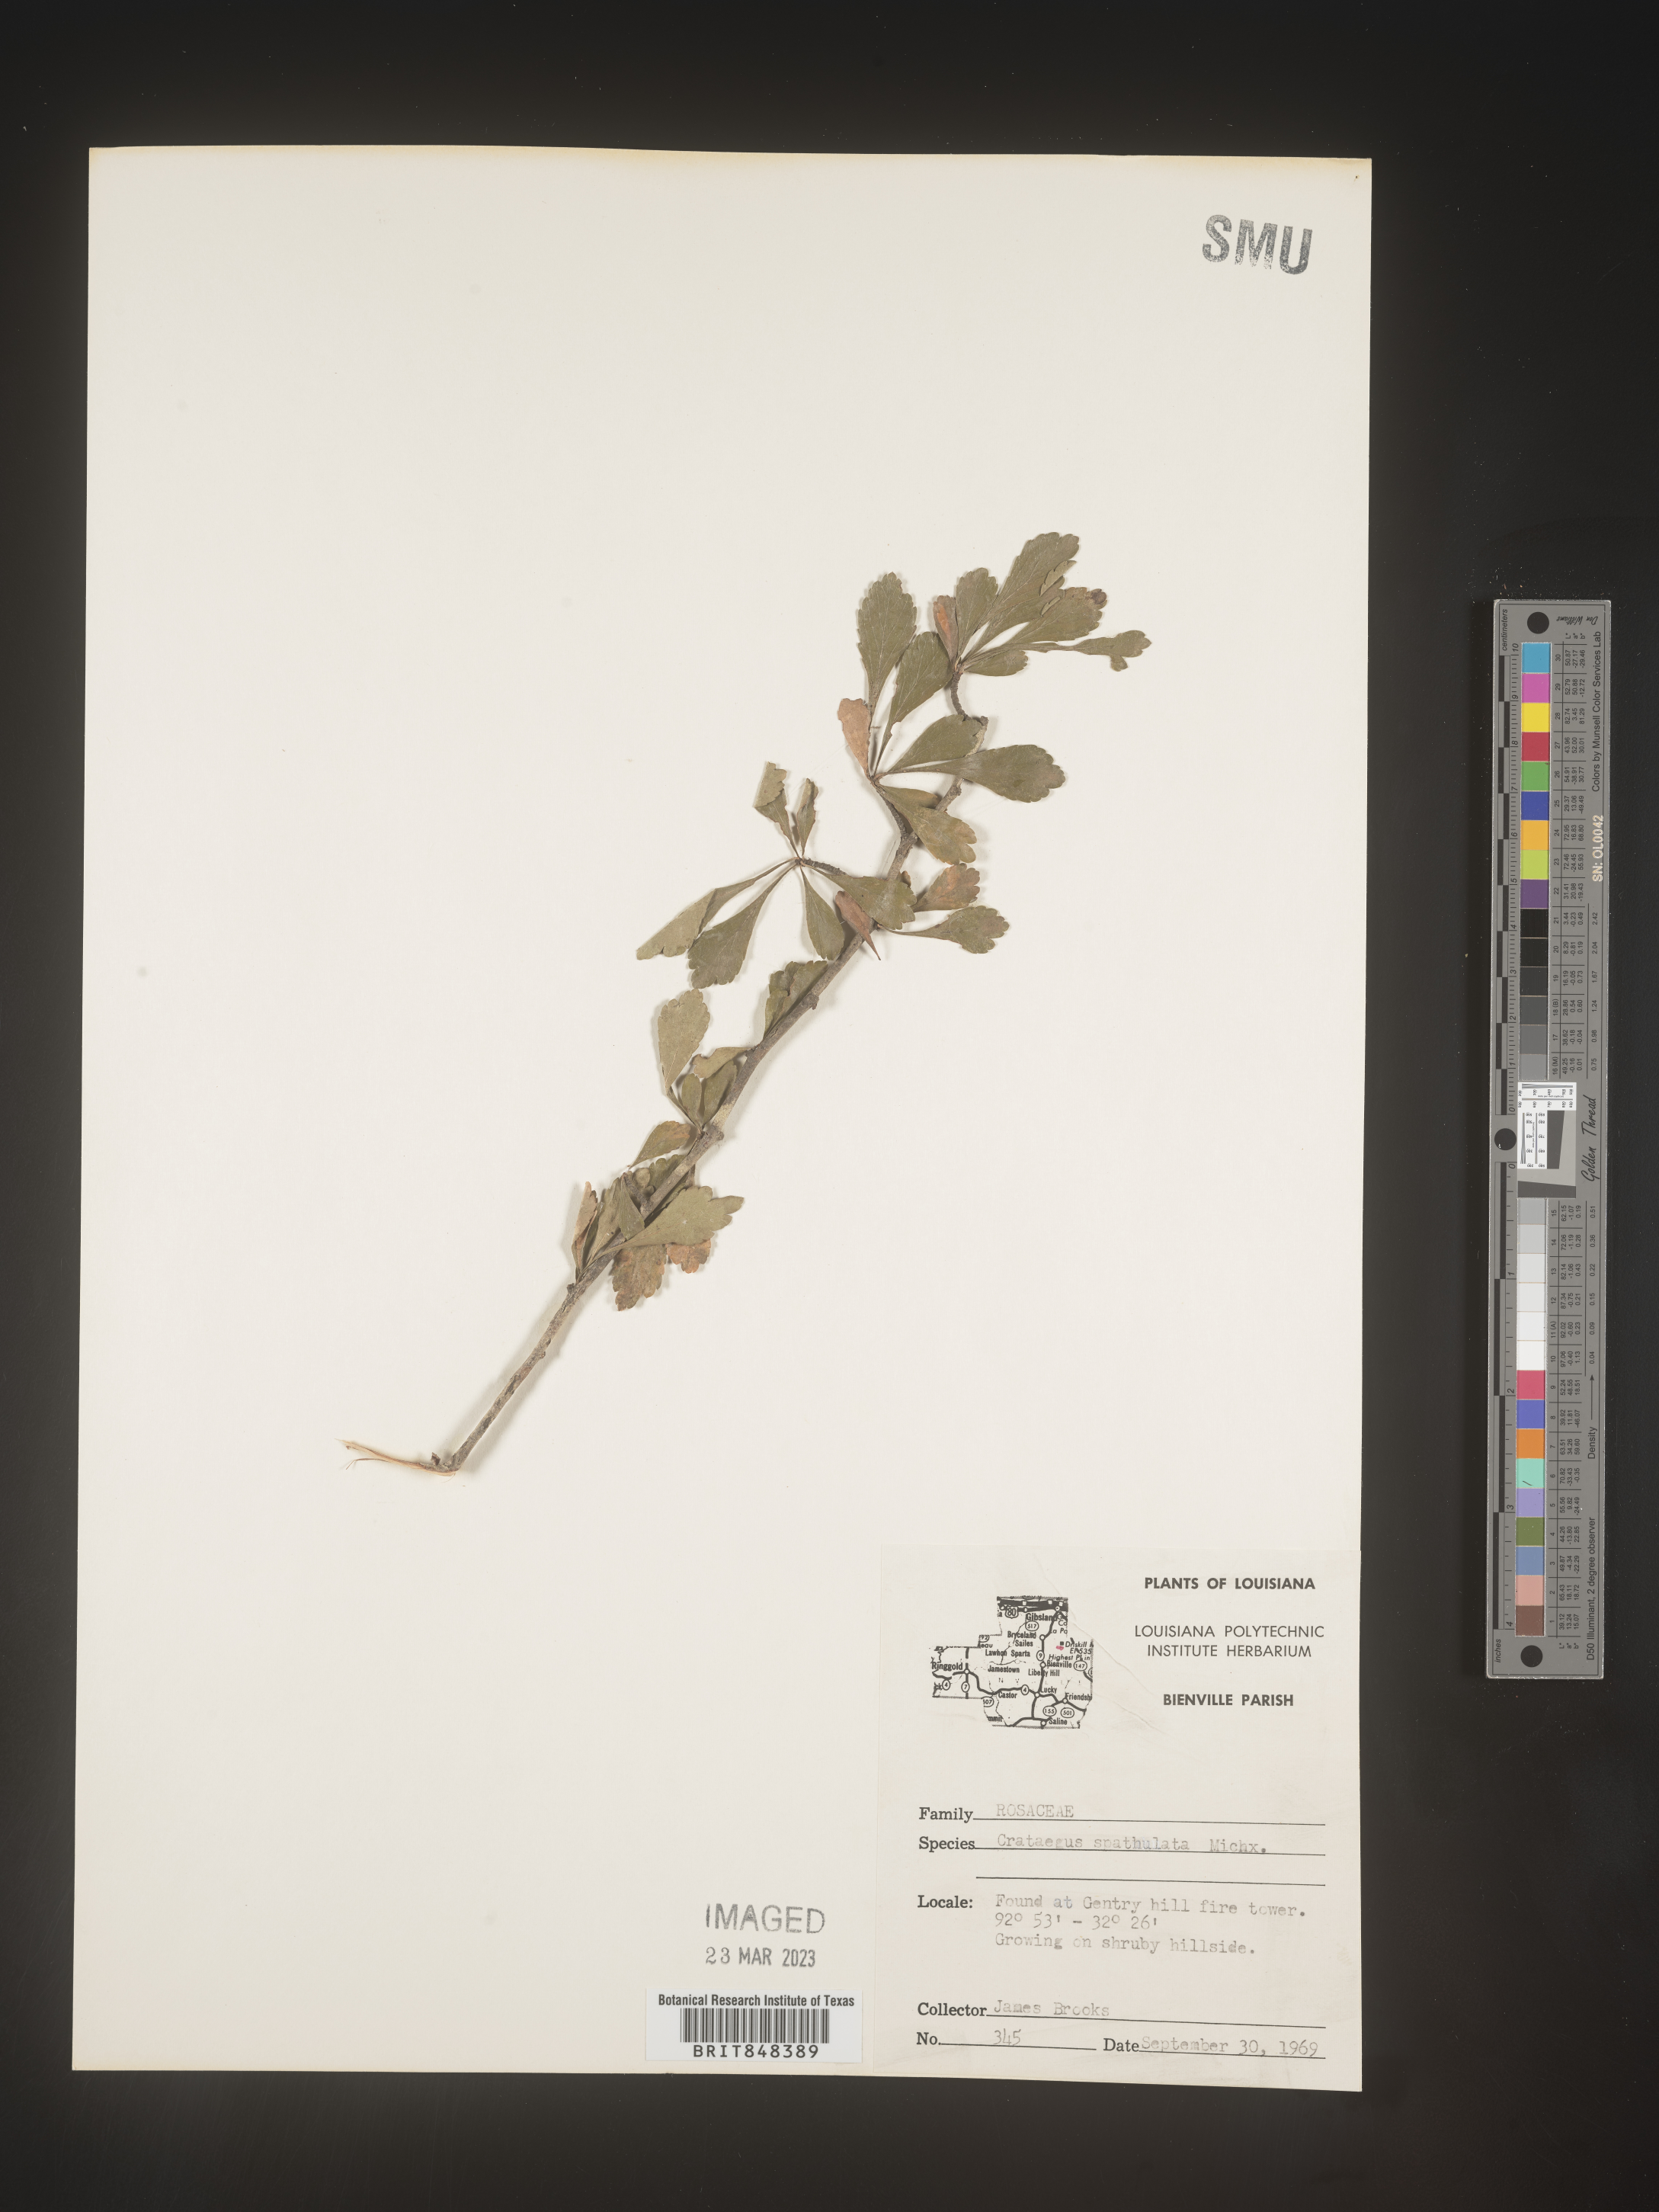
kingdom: Plantae
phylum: Tracheophyta
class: Magnoliopsida
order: Rosales
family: Rosaceae
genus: Crataegus
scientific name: Crataegus spathulata
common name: Littlehip hawthorn
